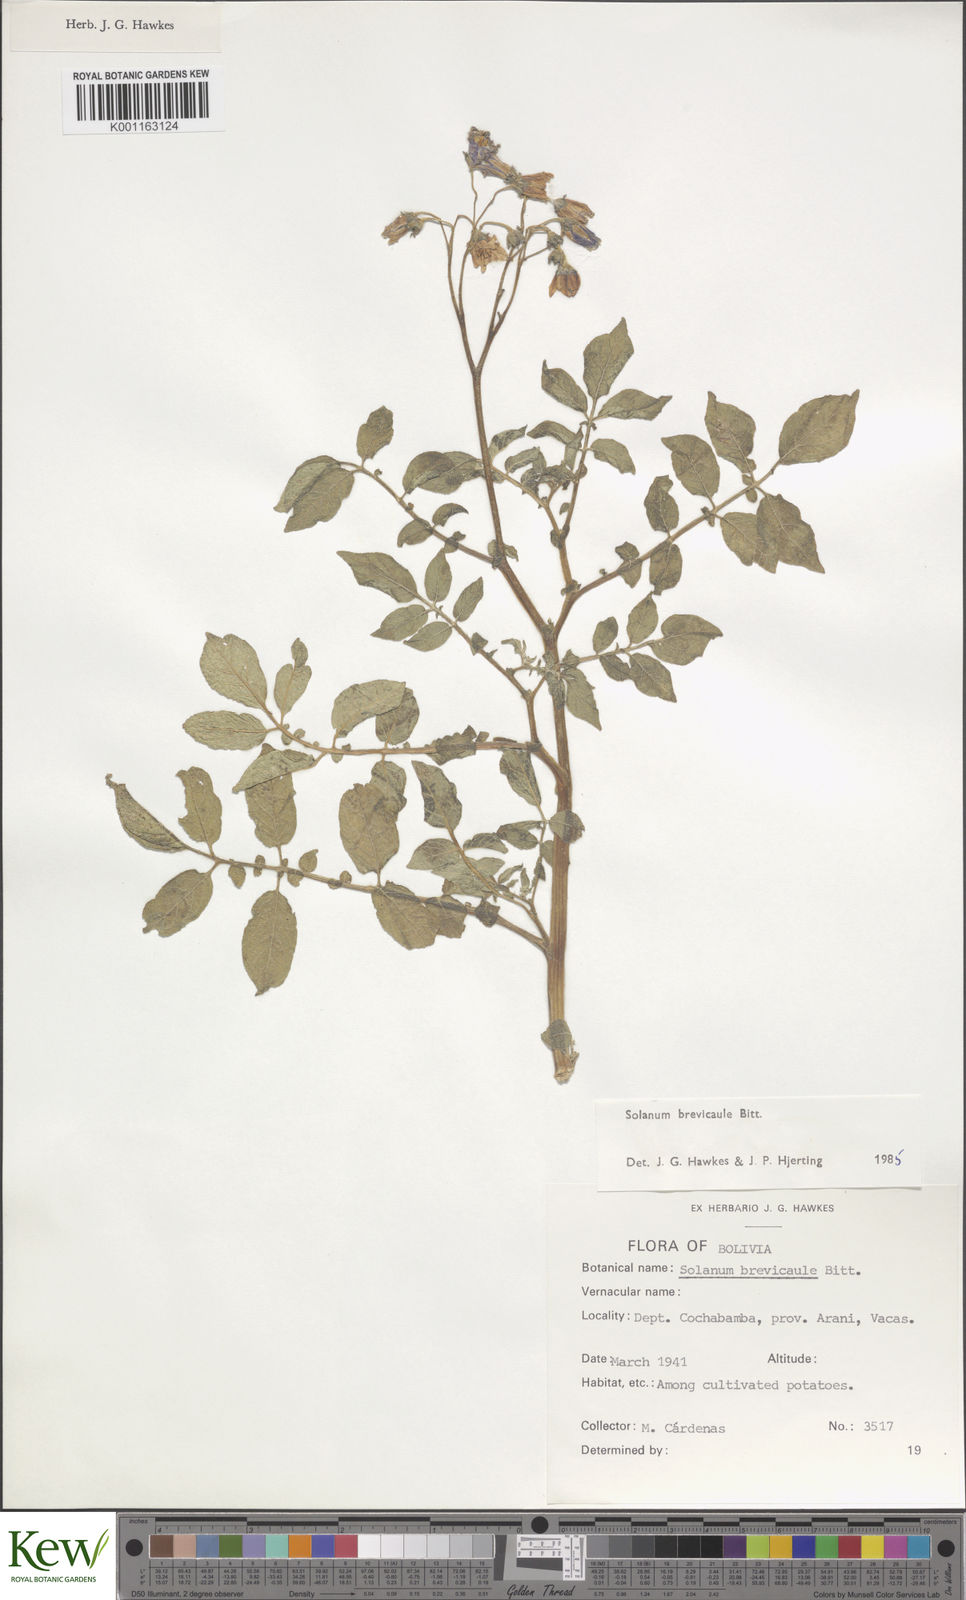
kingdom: Plantae
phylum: Tracheophyta
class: Magnoliopsida
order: Solanales
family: Solanaceae
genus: Solanum
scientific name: Solanum brevicaule
